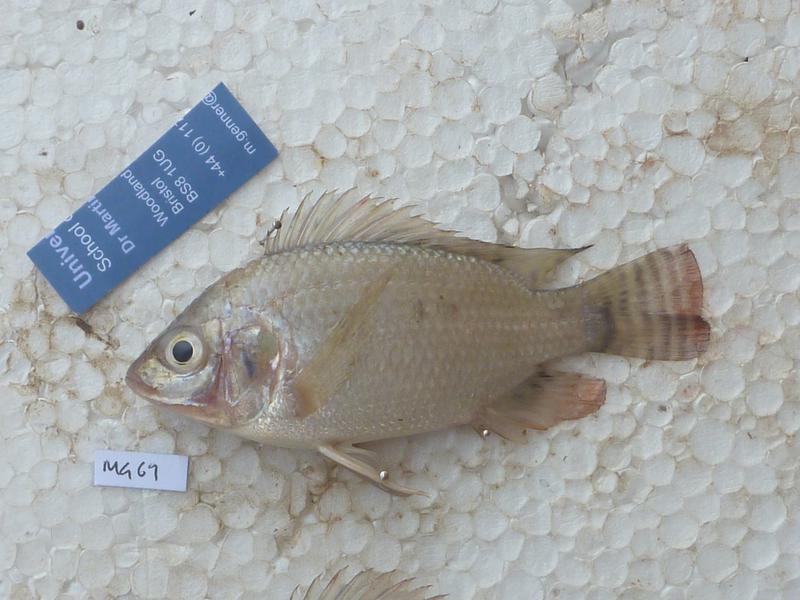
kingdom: Animalia
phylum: Chordata
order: Perciformes
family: Cichlidae
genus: Oreochromis
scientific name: Oreochromis niloticus
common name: Nile tilapia
